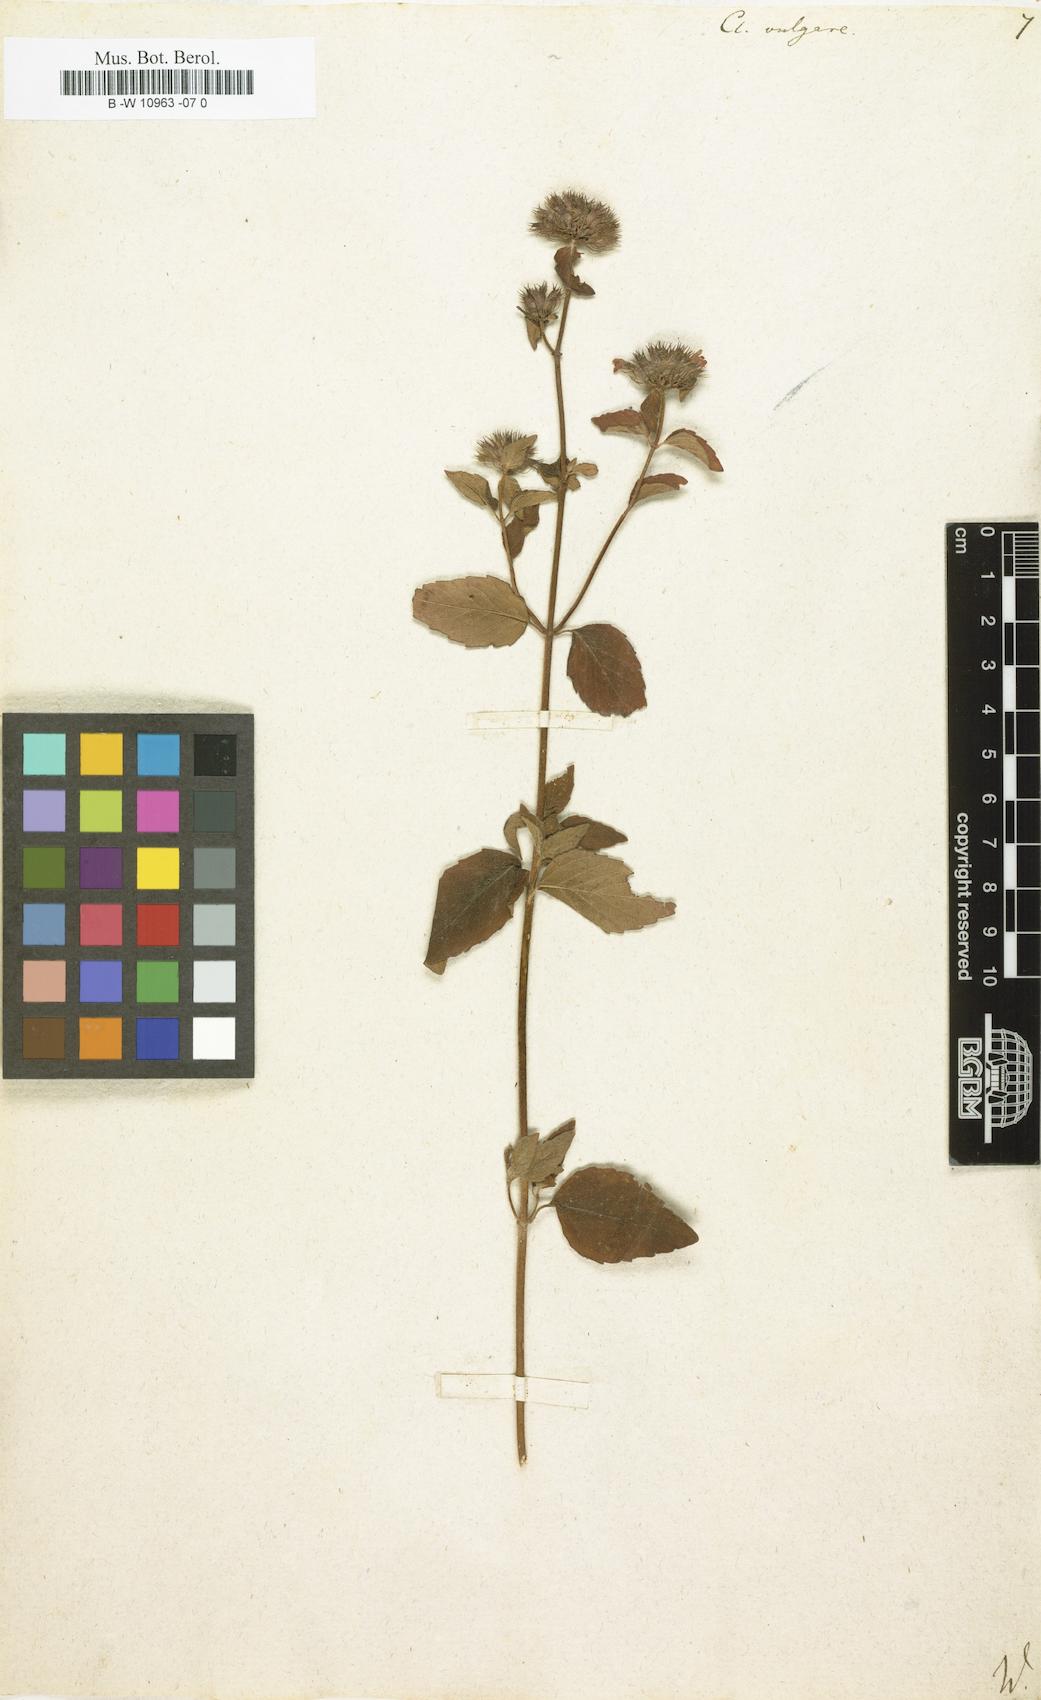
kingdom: Plantae
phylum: Tracheophyta
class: Magnoliopsida
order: Lamiales
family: Lamiaceae
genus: Clinopodium
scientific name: Clinopodium vulgare
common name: Wild basil
